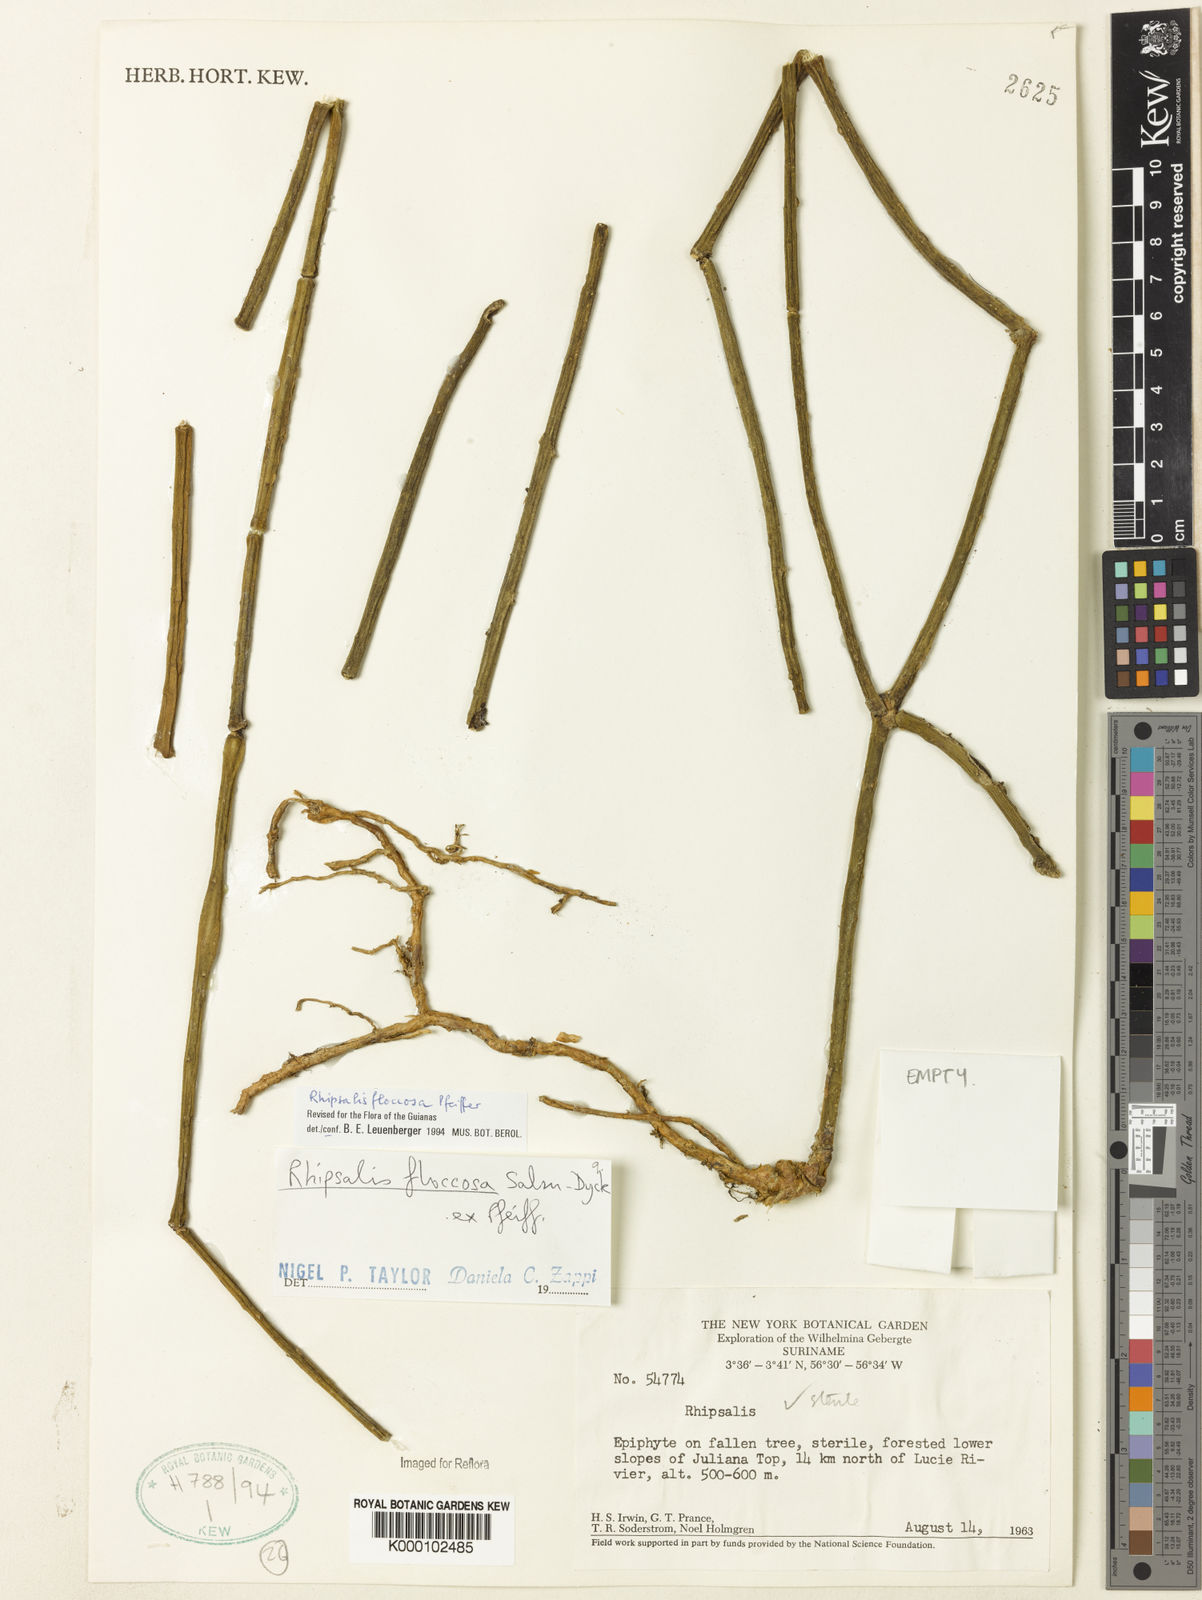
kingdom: Plantae
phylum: Tracheophyta
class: Magnoliopsida
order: Caryophyllales
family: Cactaceae
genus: Rhipsalis
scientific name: Rhipsalis floccosa
